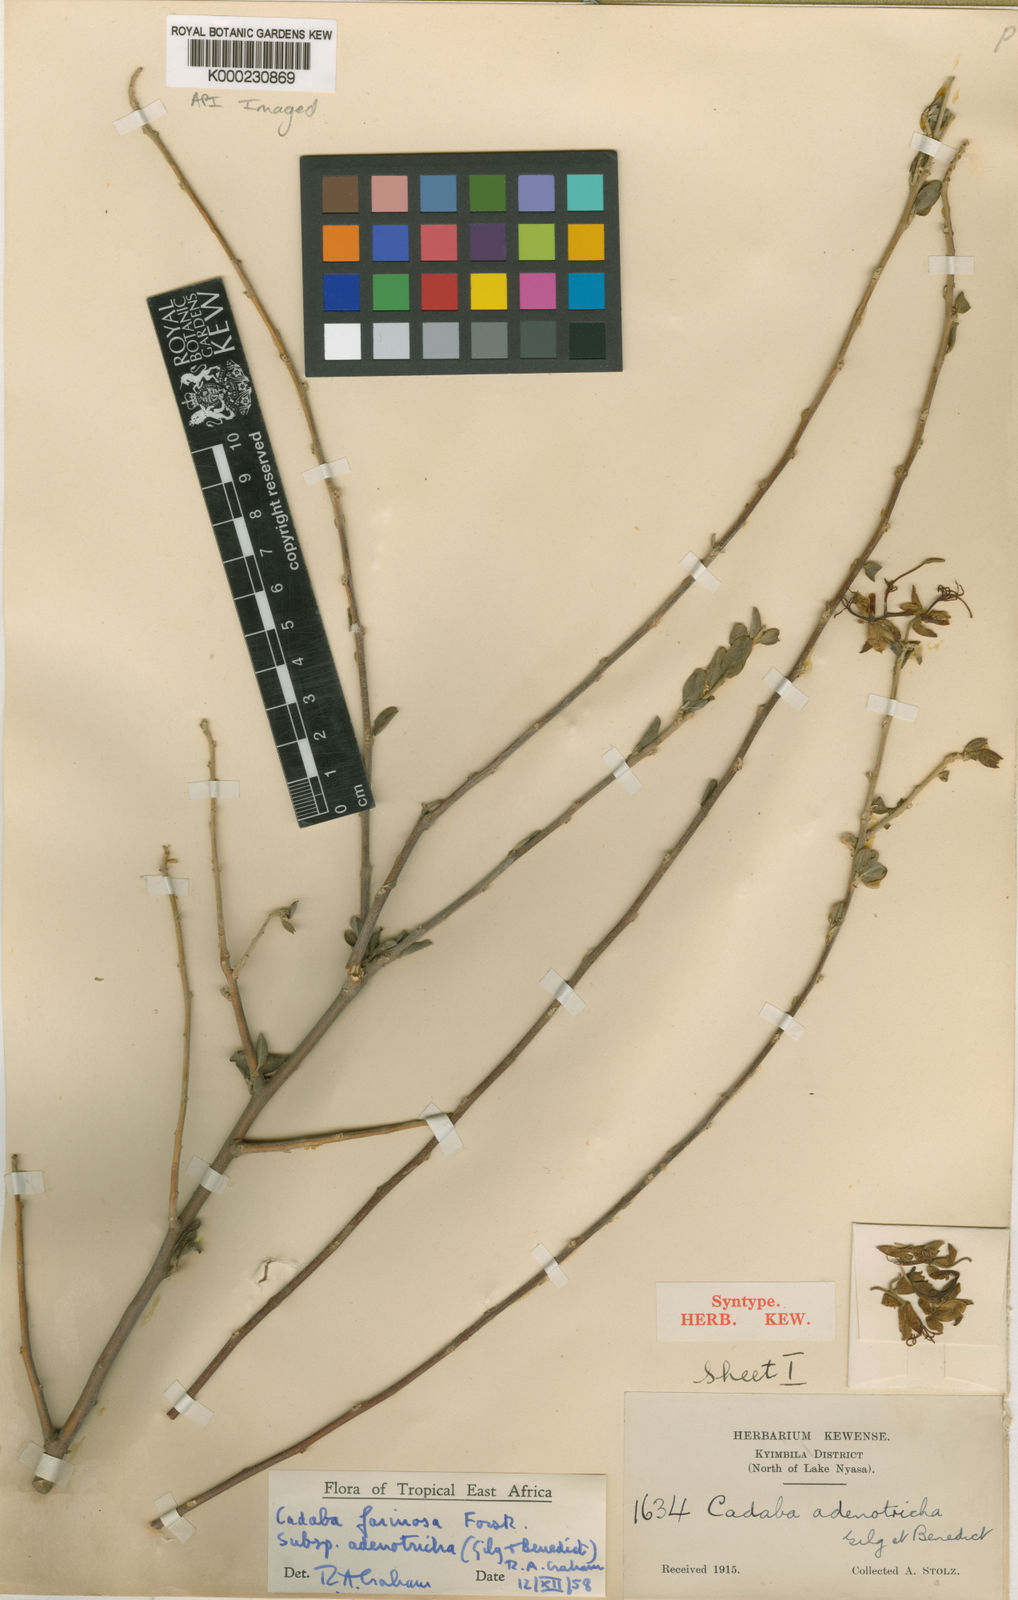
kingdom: Plantae
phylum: Tracheophyta
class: Magnoliopsida
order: Brassicales
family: Capparaceae
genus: Cadaba
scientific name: Cadaba farinosa
